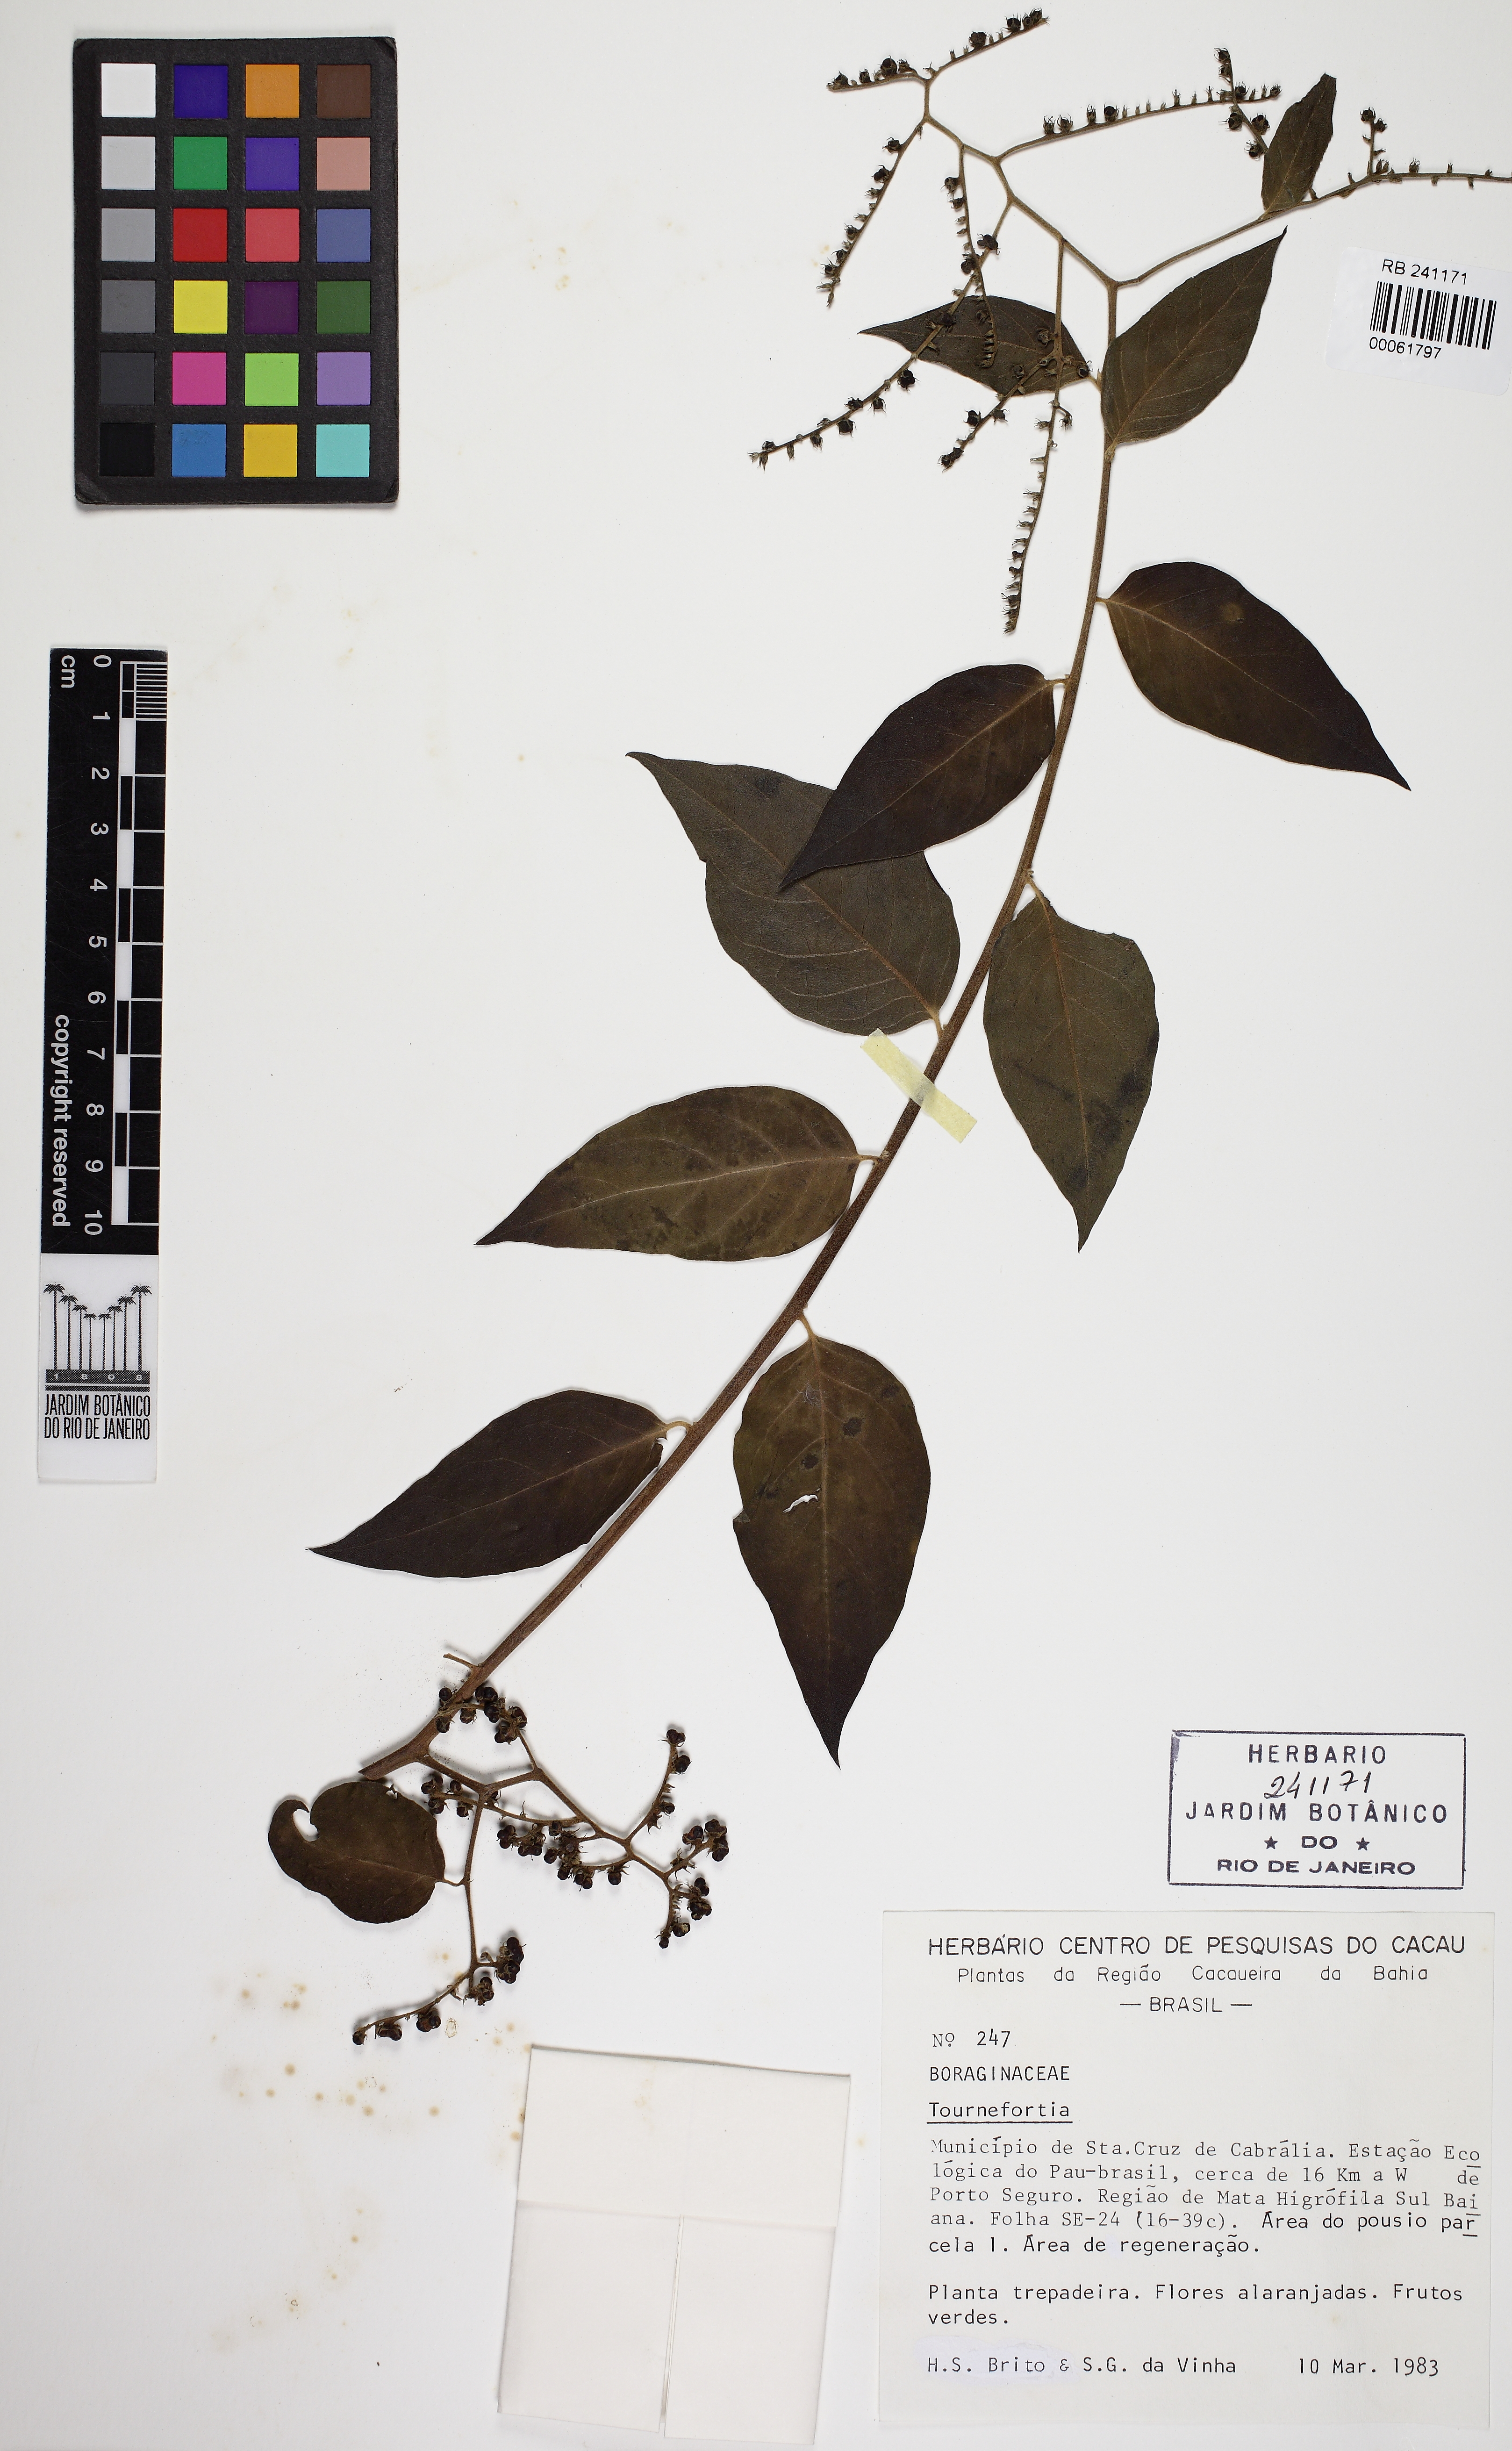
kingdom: Plantae
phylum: Tracheophyta
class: Magnoliopsida
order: Boraginales
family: Heliotropiaceae
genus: Myriopus
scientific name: Myriopus subsessilis
